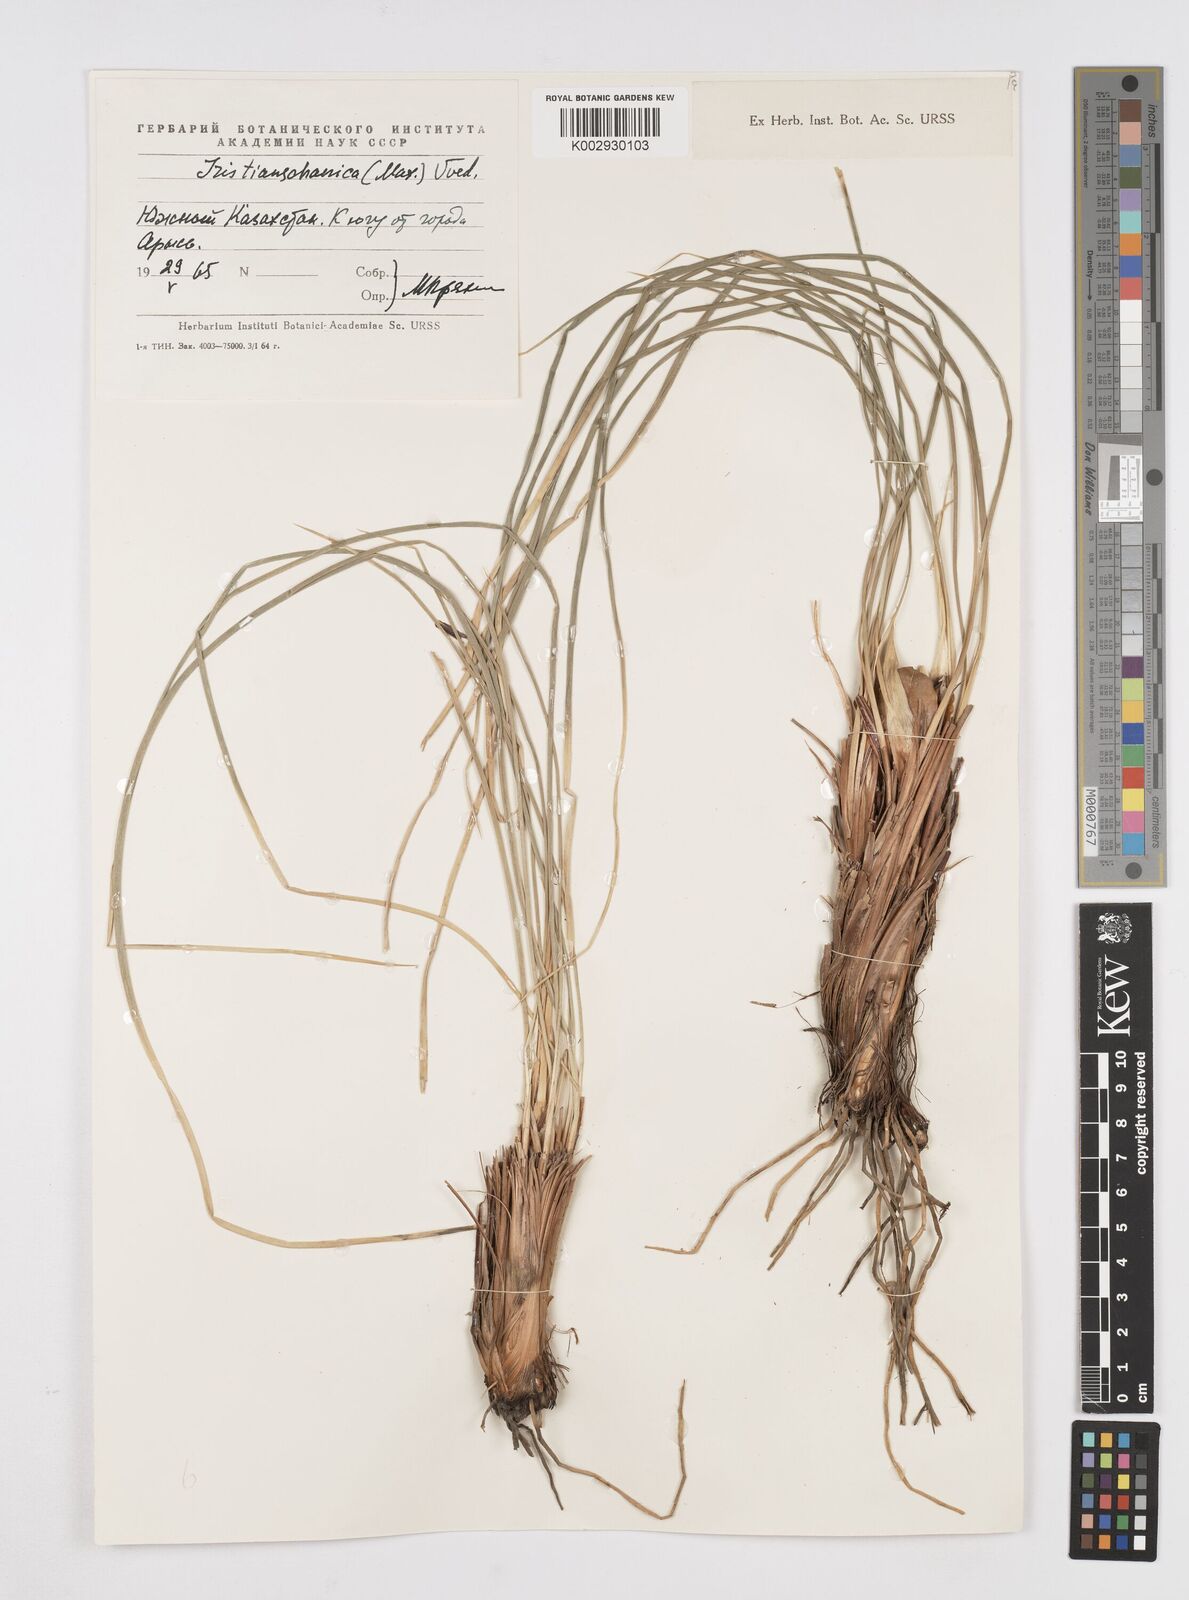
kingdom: Plantae
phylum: Tracheophyta
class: Liliopsida
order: Asparagales
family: Iridaceae
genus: Iris
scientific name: Iris tenuifolia
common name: Slender-leaf iris
